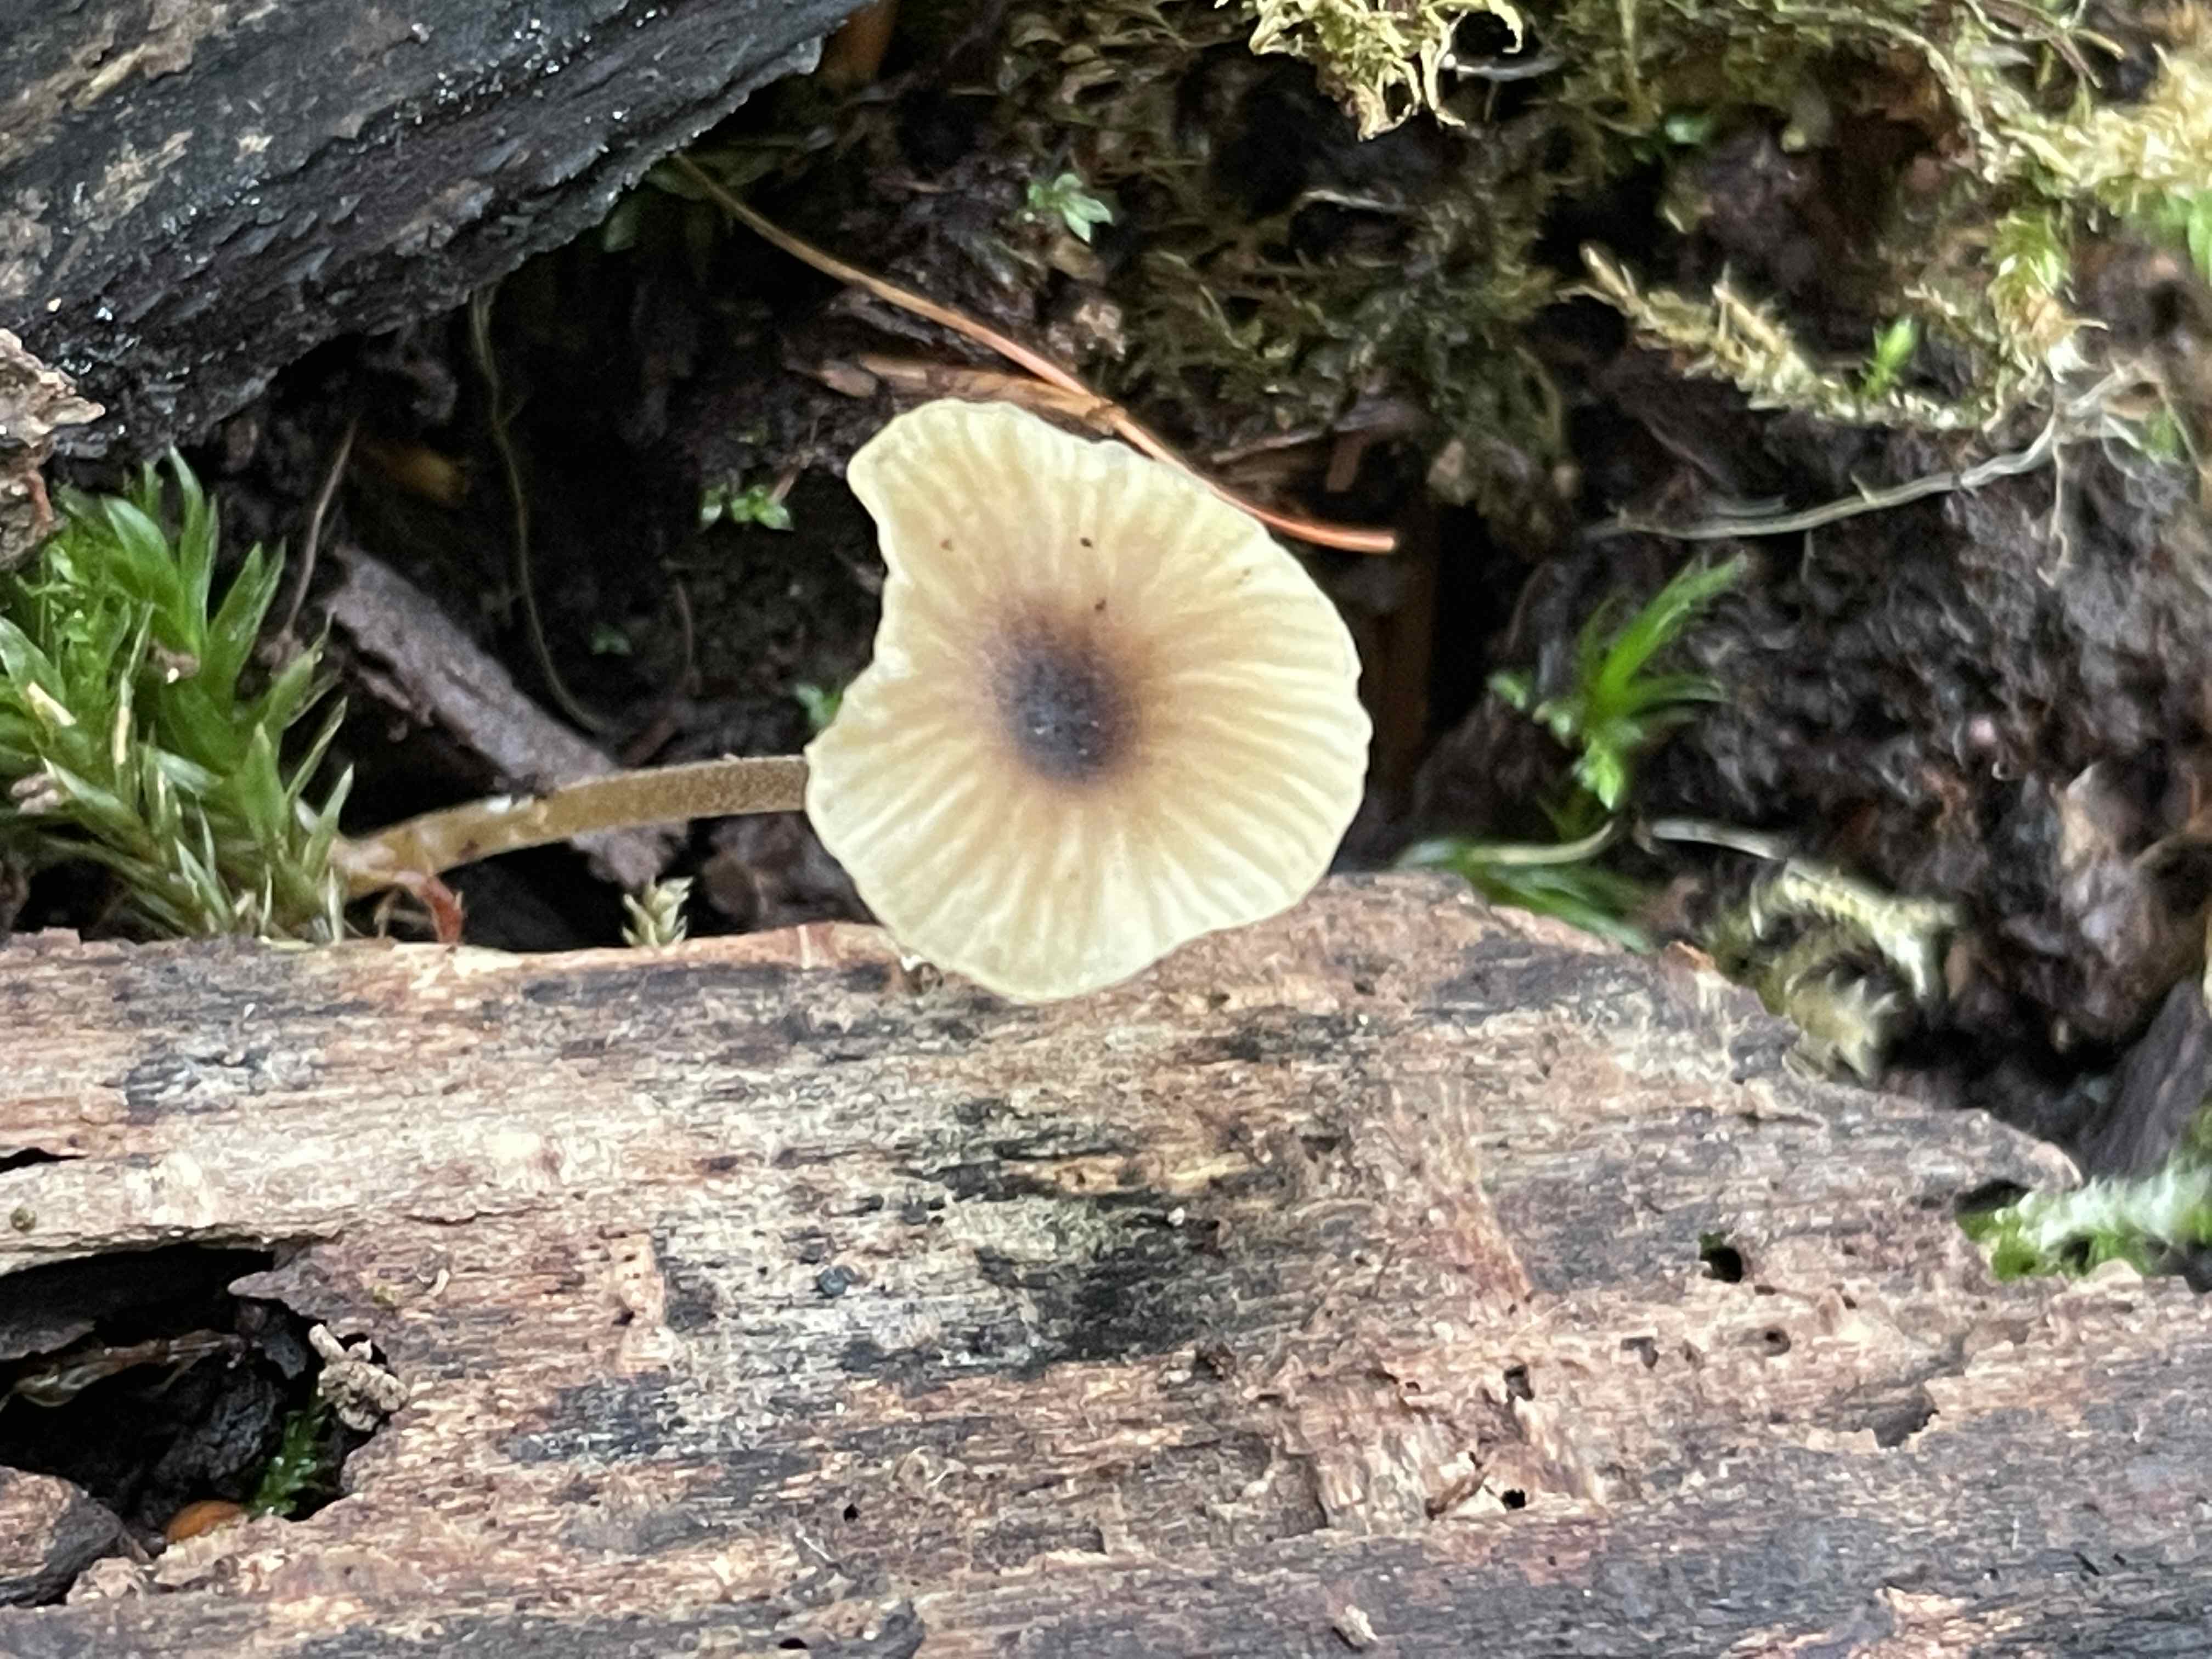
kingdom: Fungi
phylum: Basidiomycota
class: Agaricomycetes
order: Hymenochaetales
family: Rickenellaceae
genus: Rickenella
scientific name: Rickenella swartzii
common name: finstokket mosnavlehat
